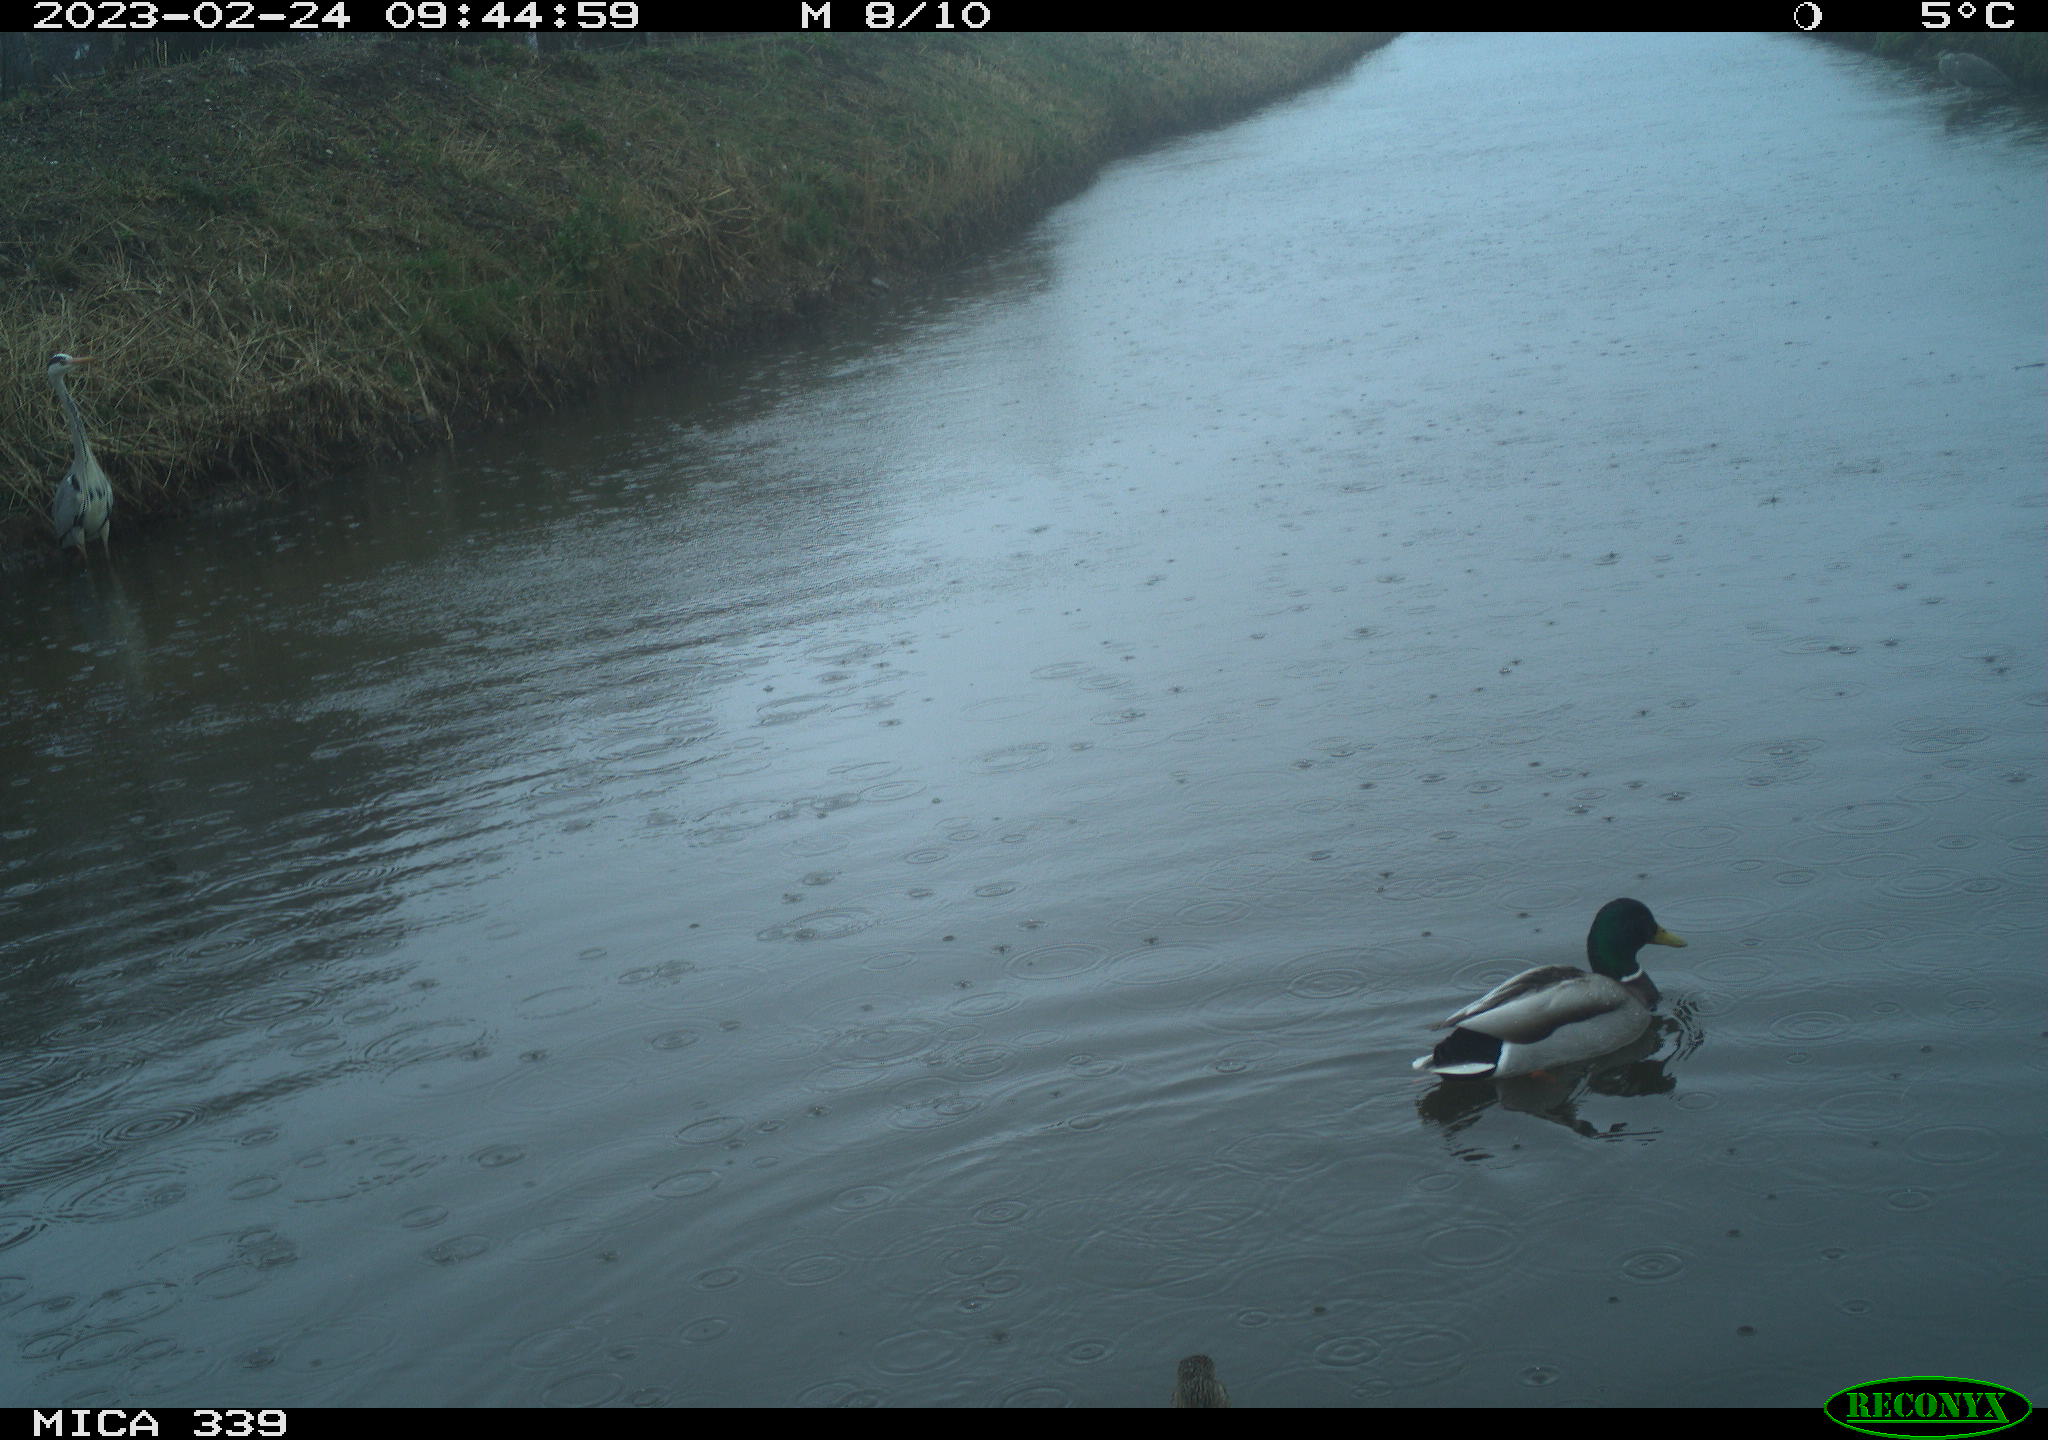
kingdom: Animalia
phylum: Chordata
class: Aves
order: Pelecaniformes
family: Ardeidae
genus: Ardea
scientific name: Ardea cinerea
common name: Grey heron
